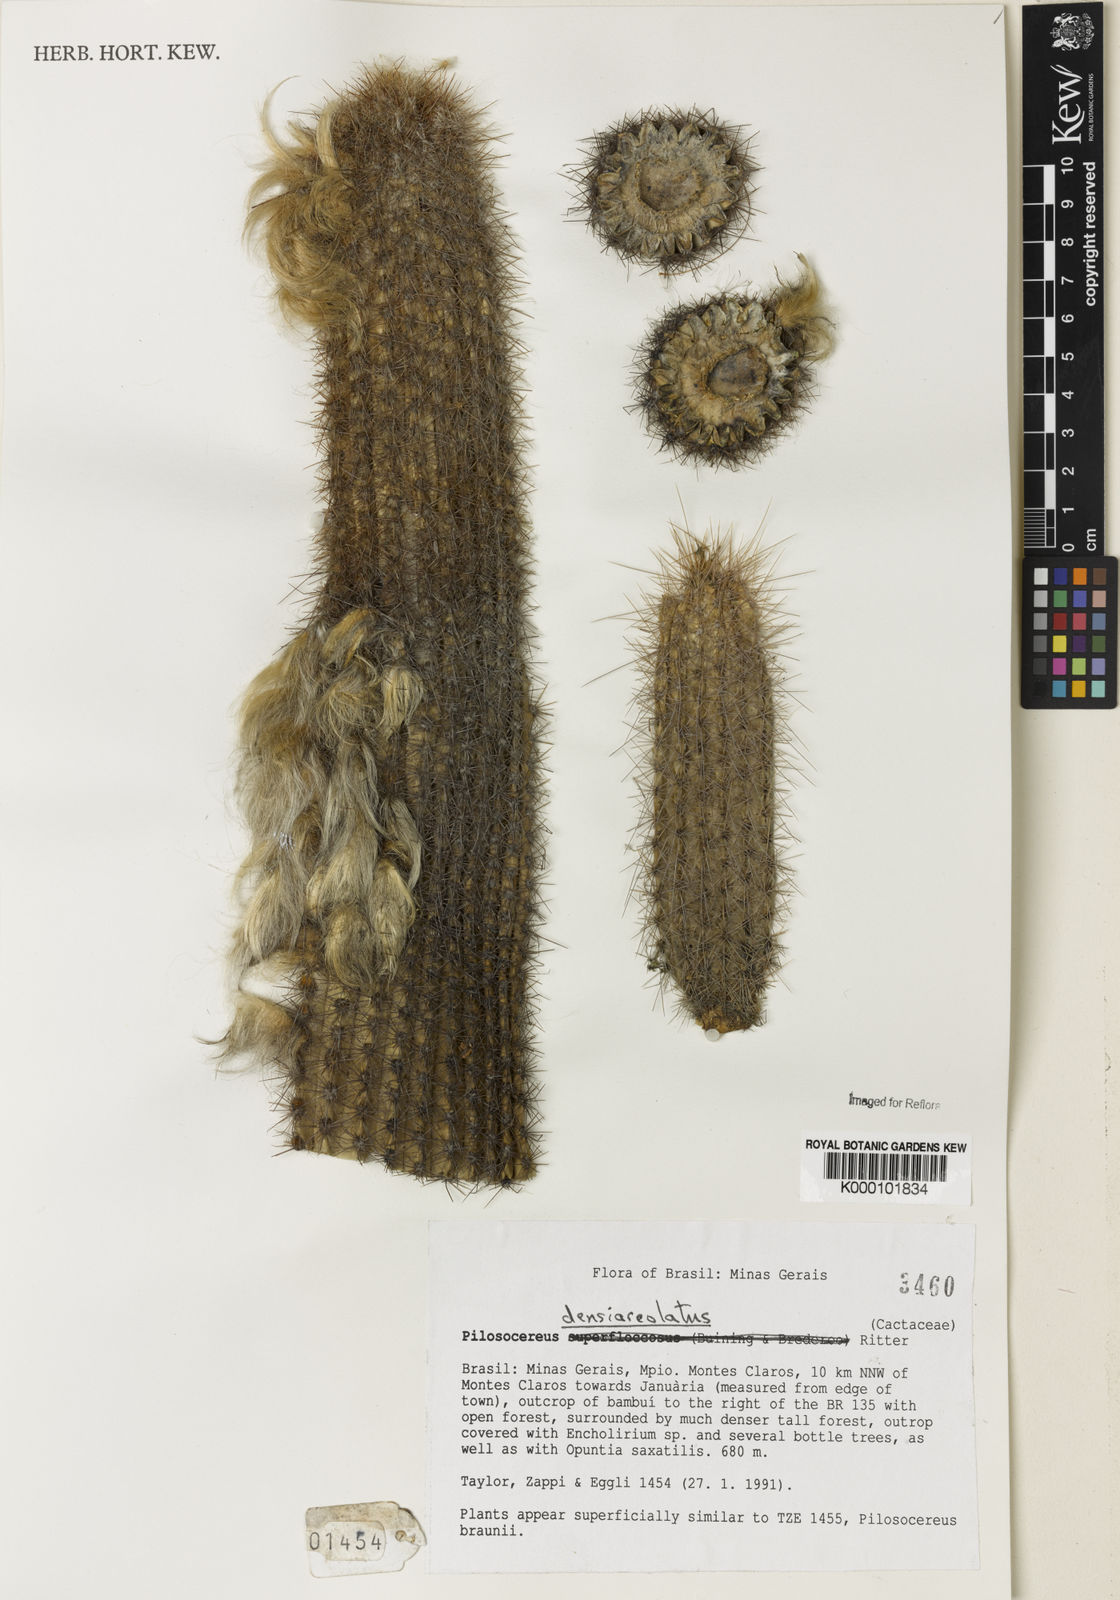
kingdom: Plantae
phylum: Tracheophyta
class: Magnoliopsida
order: Caryophyllales
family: Cactaceae
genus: Pilosocereus
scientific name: Pilosocereus densiareolatus
